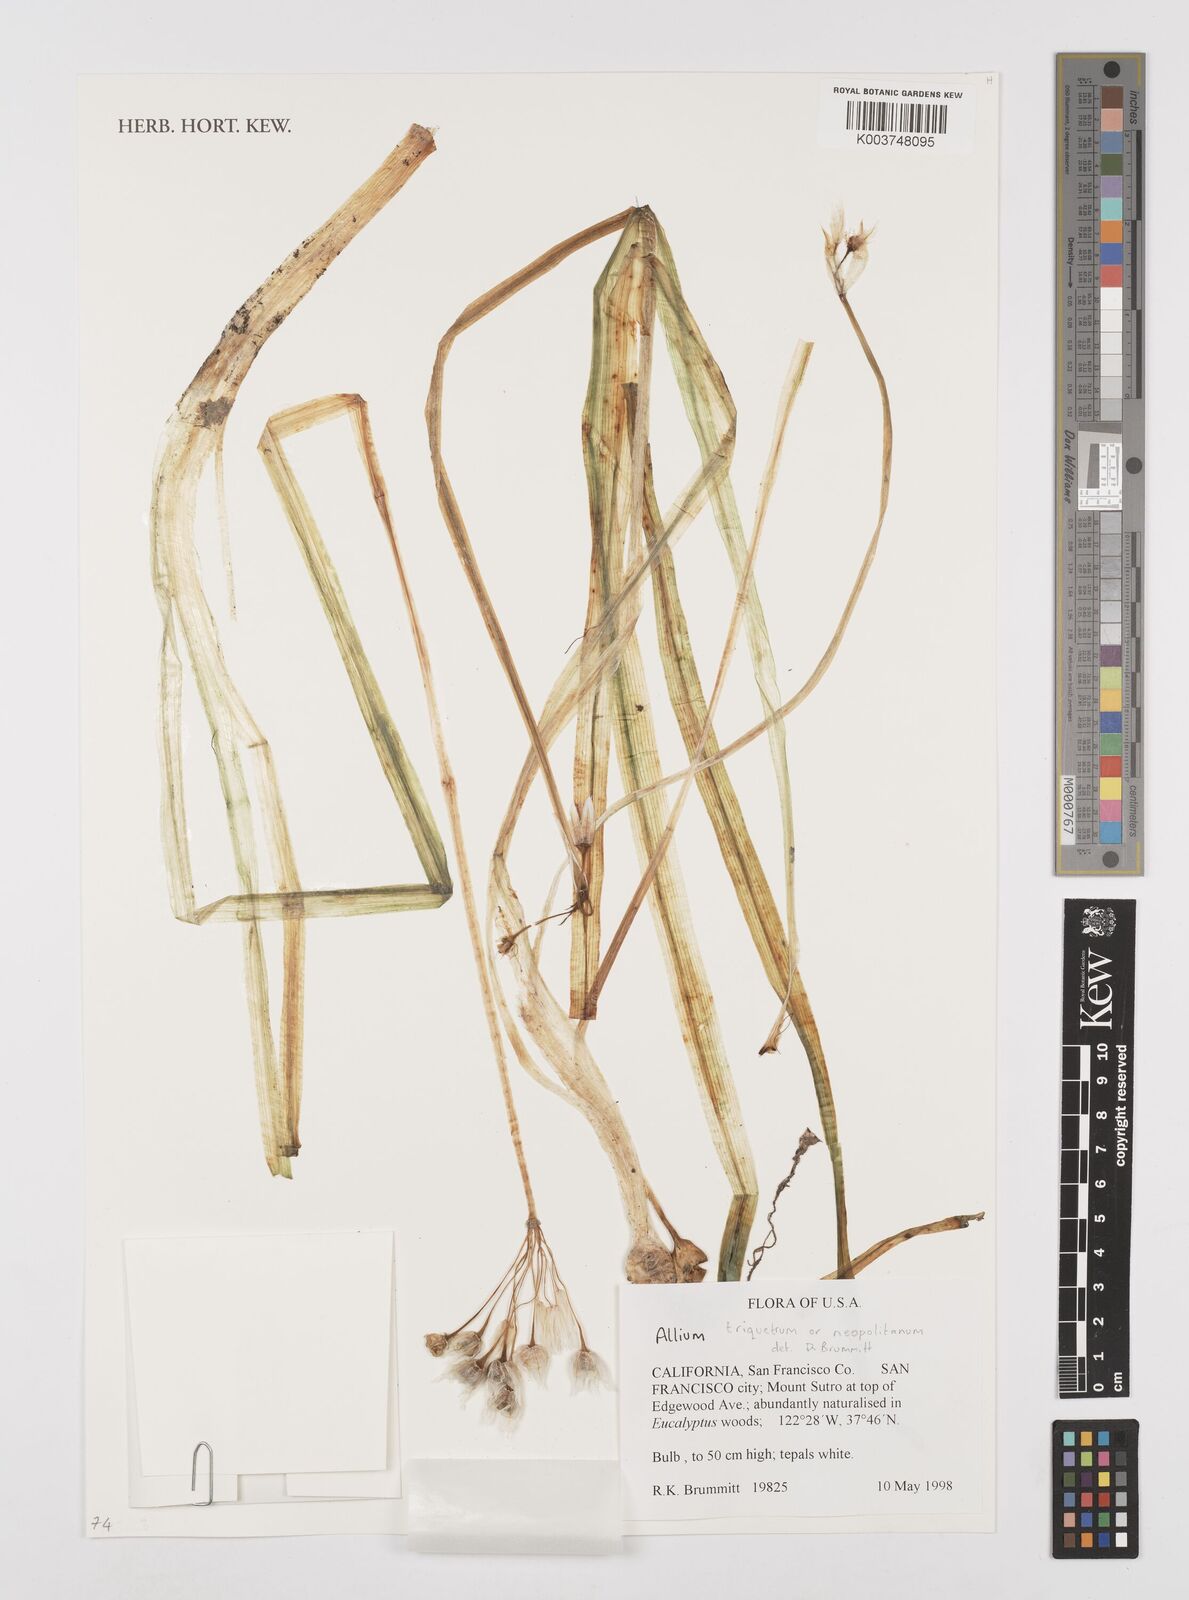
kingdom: Plantae
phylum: Tracheophyta
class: Liliopsida
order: Asparagales
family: Amaryllidaceae
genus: Allium
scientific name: Allium
